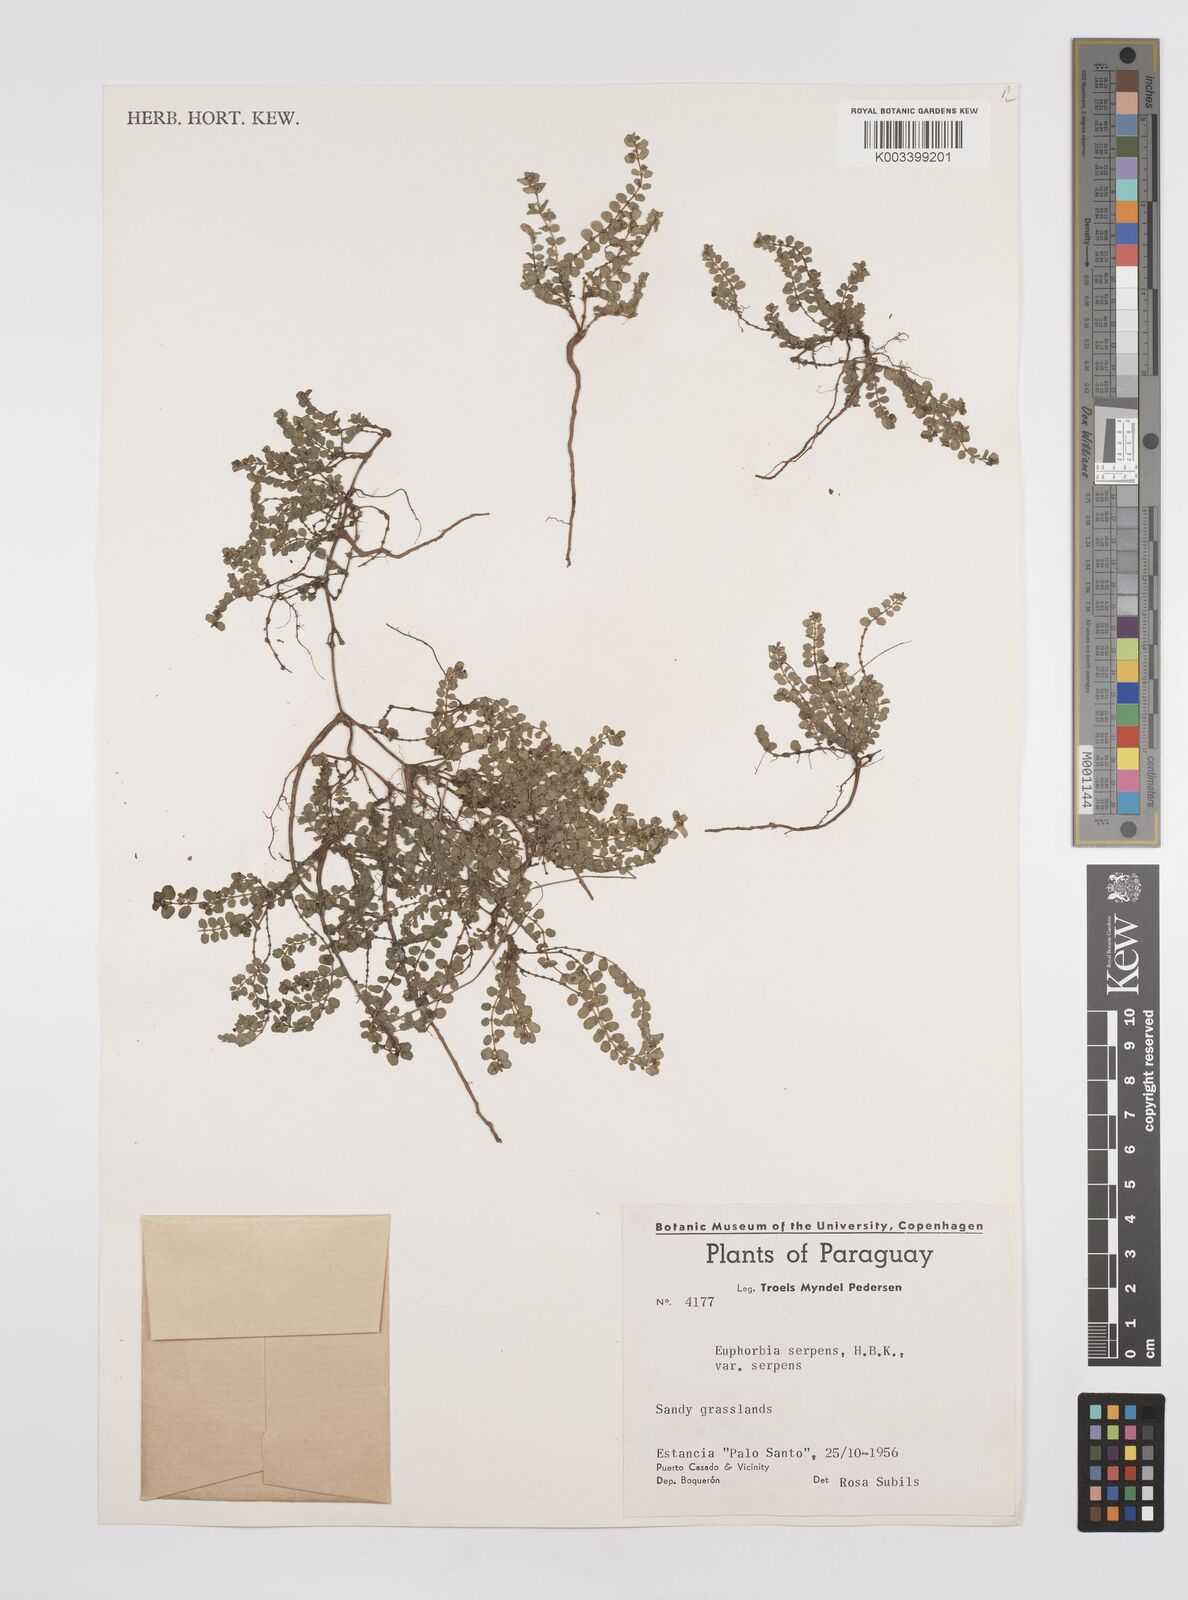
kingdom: Plantae
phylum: Tracheophyta
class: Magnoliopsida
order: Malpighiales
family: Euphorbiaceae
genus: Euphorbia
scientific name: Euphorbia serpens
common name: Matted sandmat
